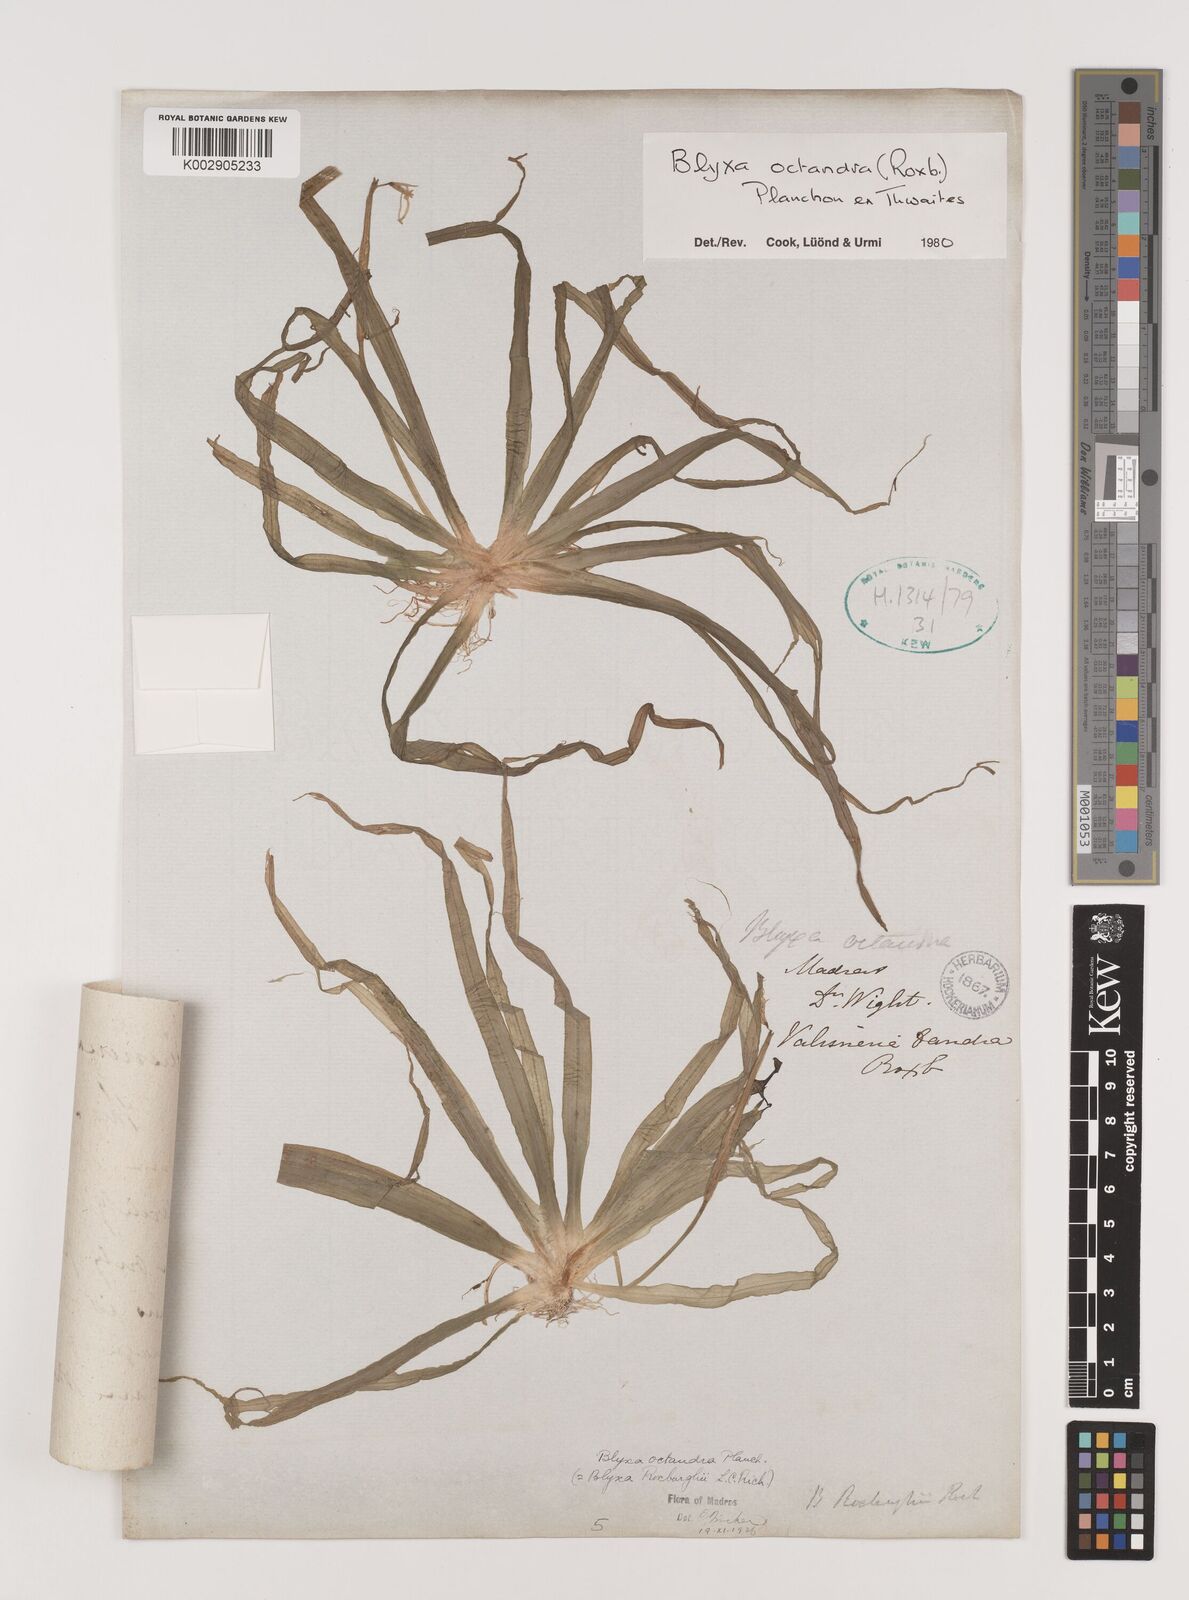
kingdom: Plantae
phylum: Tracheophyta
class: Liliopsida
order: Alismatales
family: Hydrocharitaceae
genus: Blyxa
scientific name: Blyxa octandra
